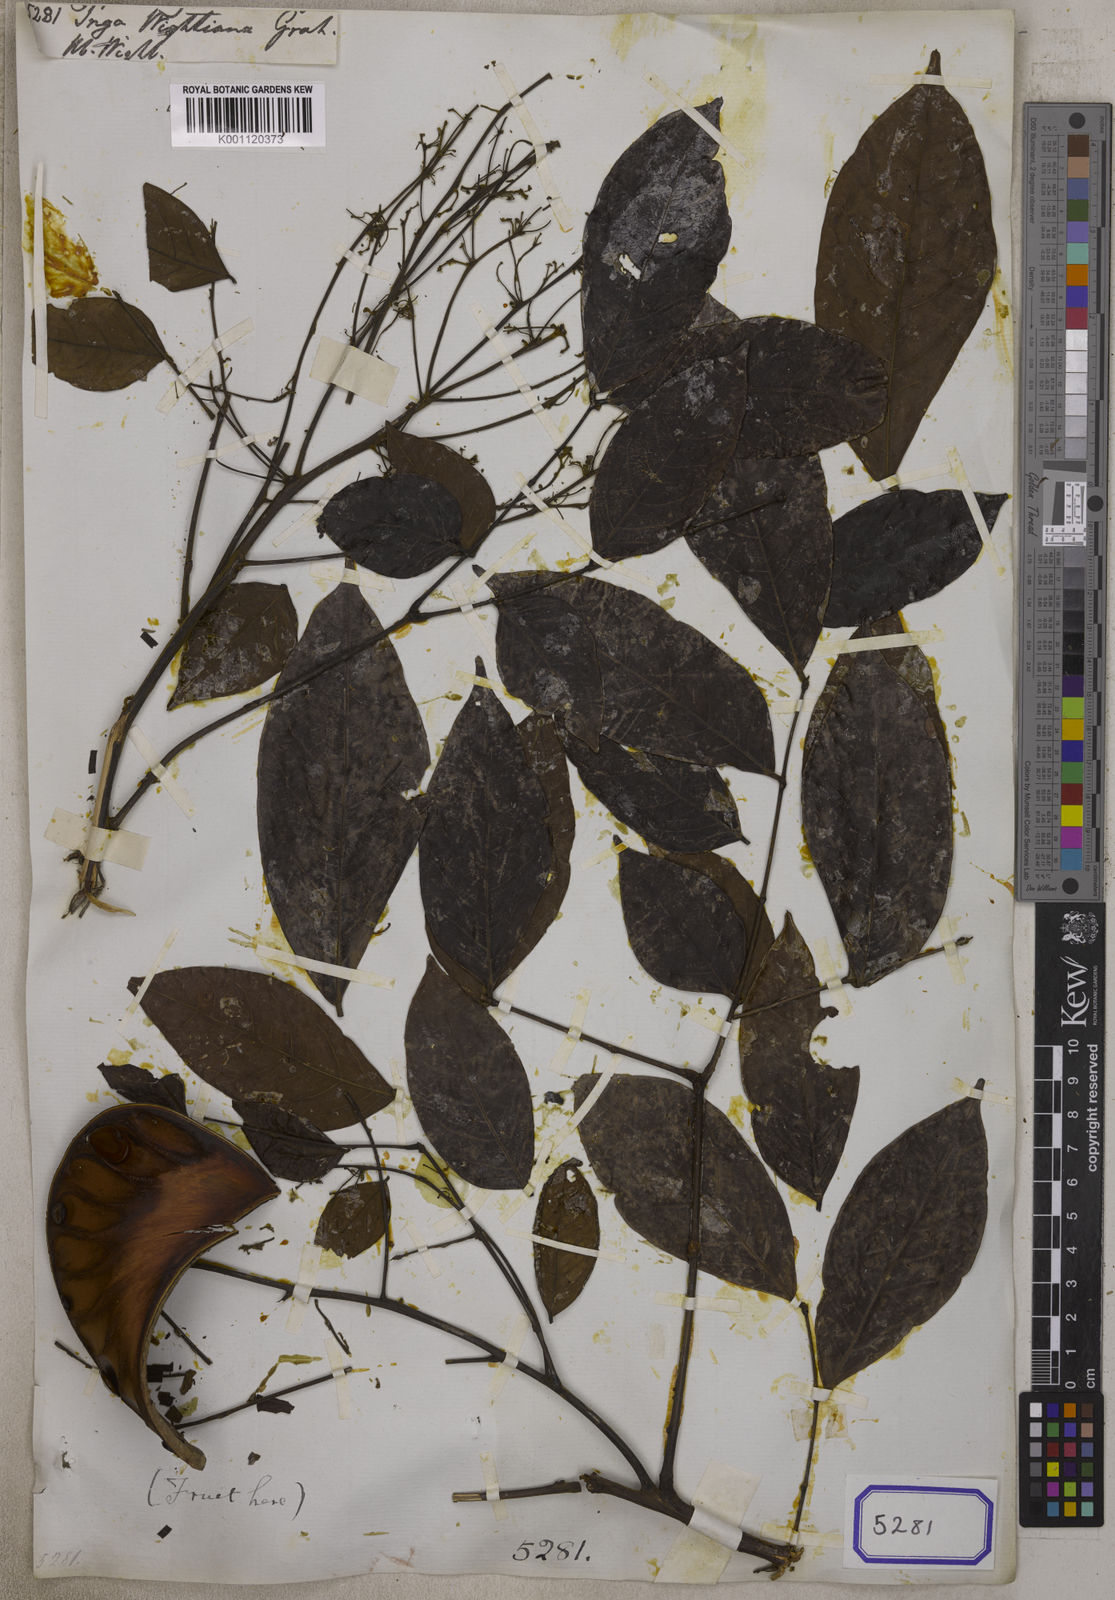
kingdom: Plantae
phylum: Tracheophyta
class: Magnoliopsida
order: Fabales
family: Fabaceae
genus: Archidendron
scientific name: Archidendron bigeminum
